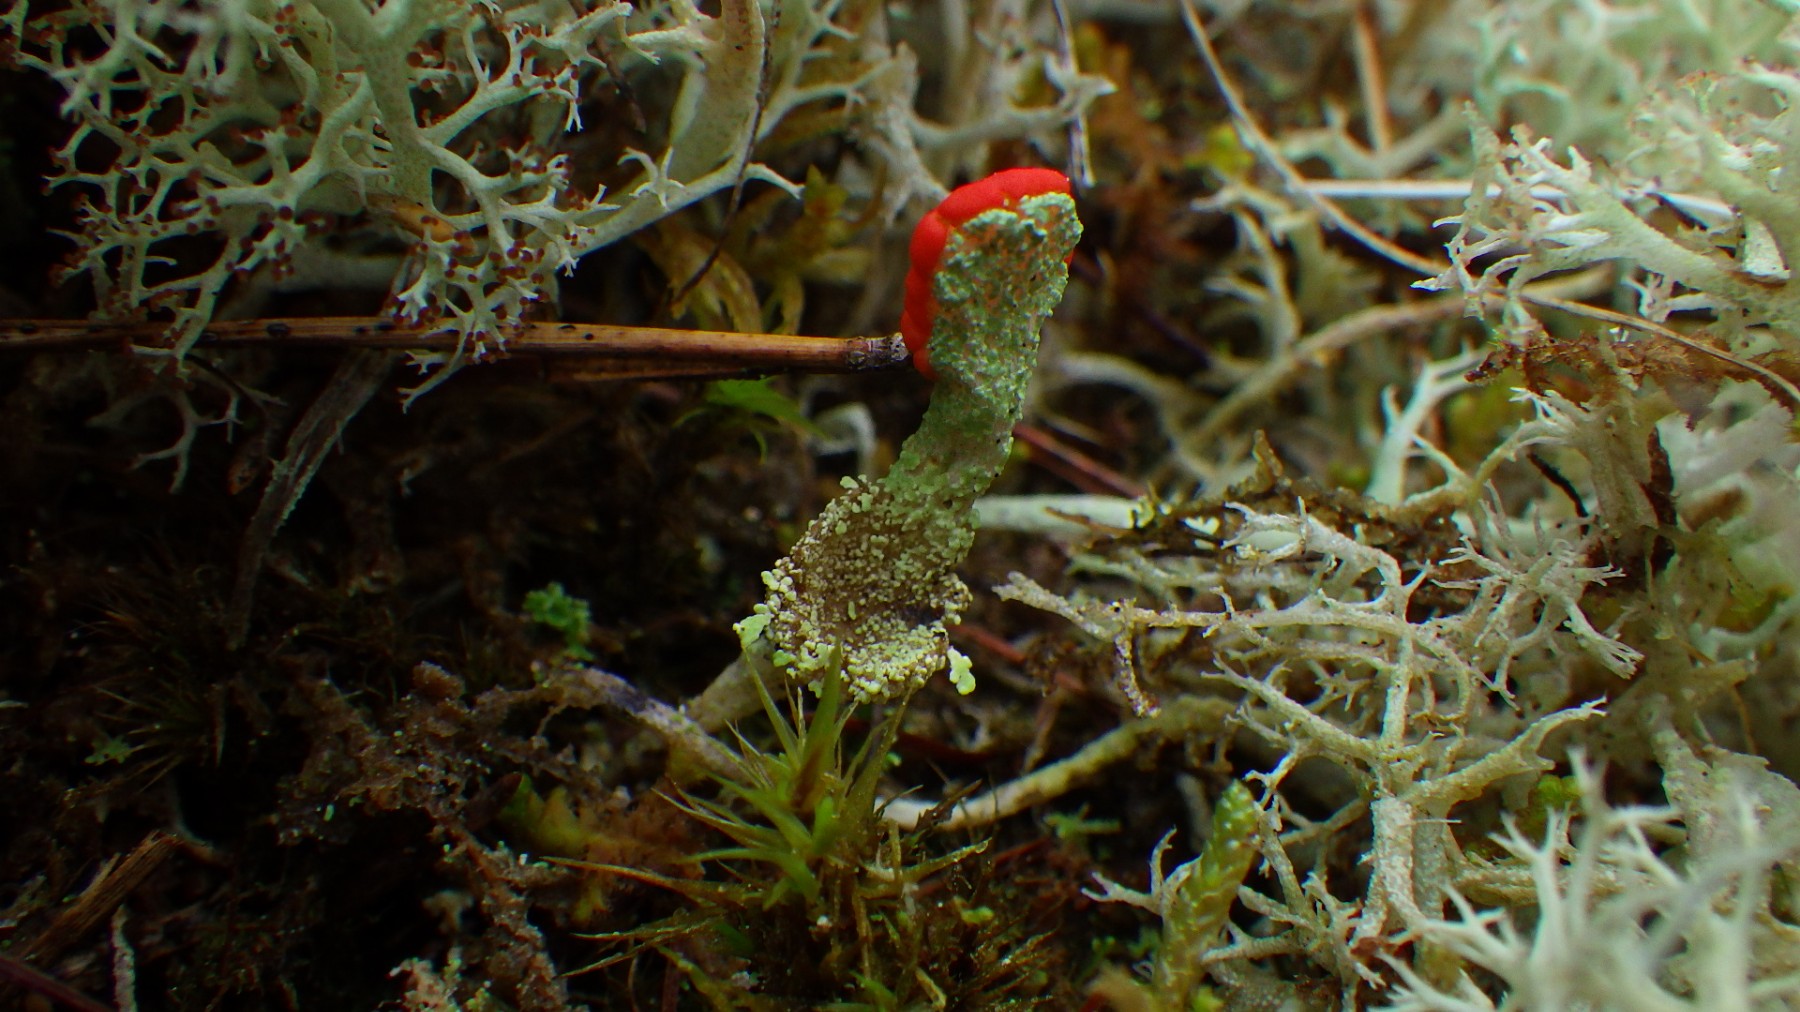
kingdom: Fungi
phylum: Ascomycota
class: Lecanoromycetes
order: Lecanorales
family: Cladoniaceae
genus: Cladonia
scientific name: Cladonia diversa
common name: rød bægerlav
